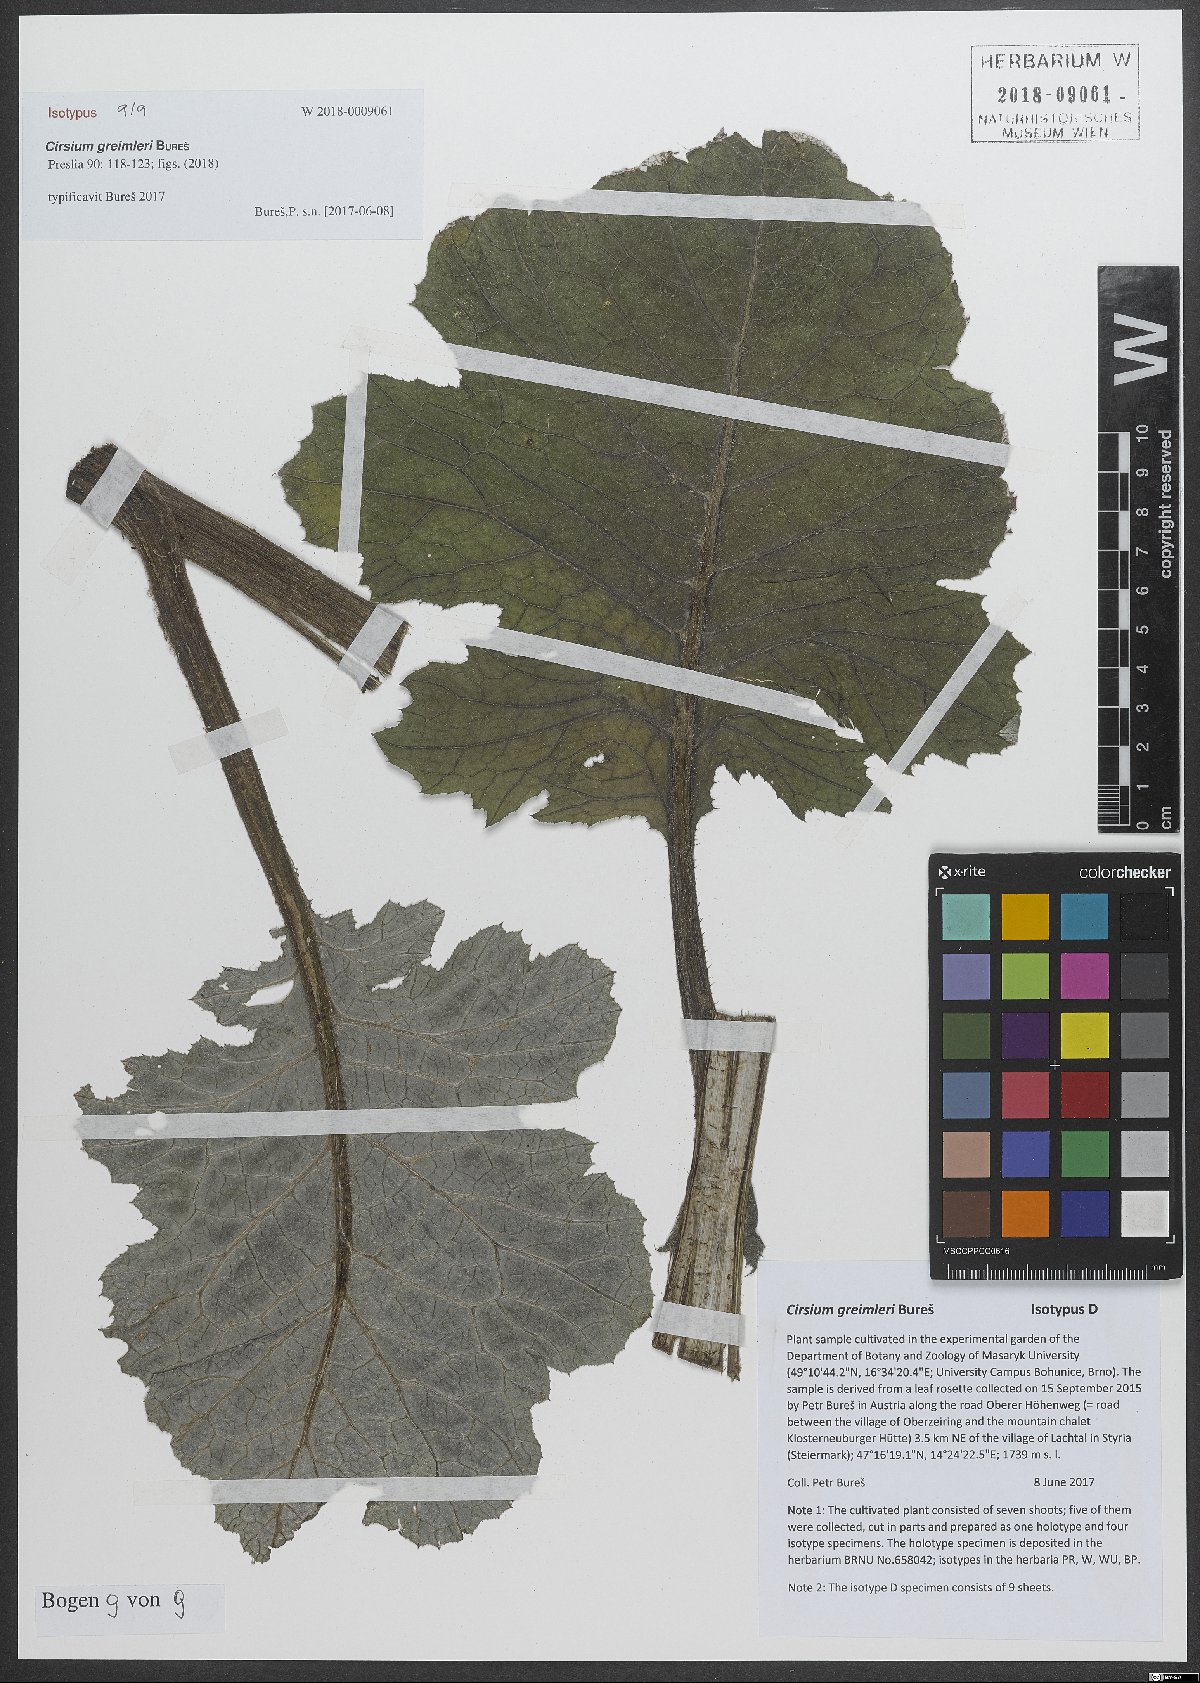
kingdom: Plantae
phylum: Tracheophyta
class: Magnoliopsida
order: Asterales
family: Asteraceae
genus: Cirsium
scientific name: Cirsium greimleri
